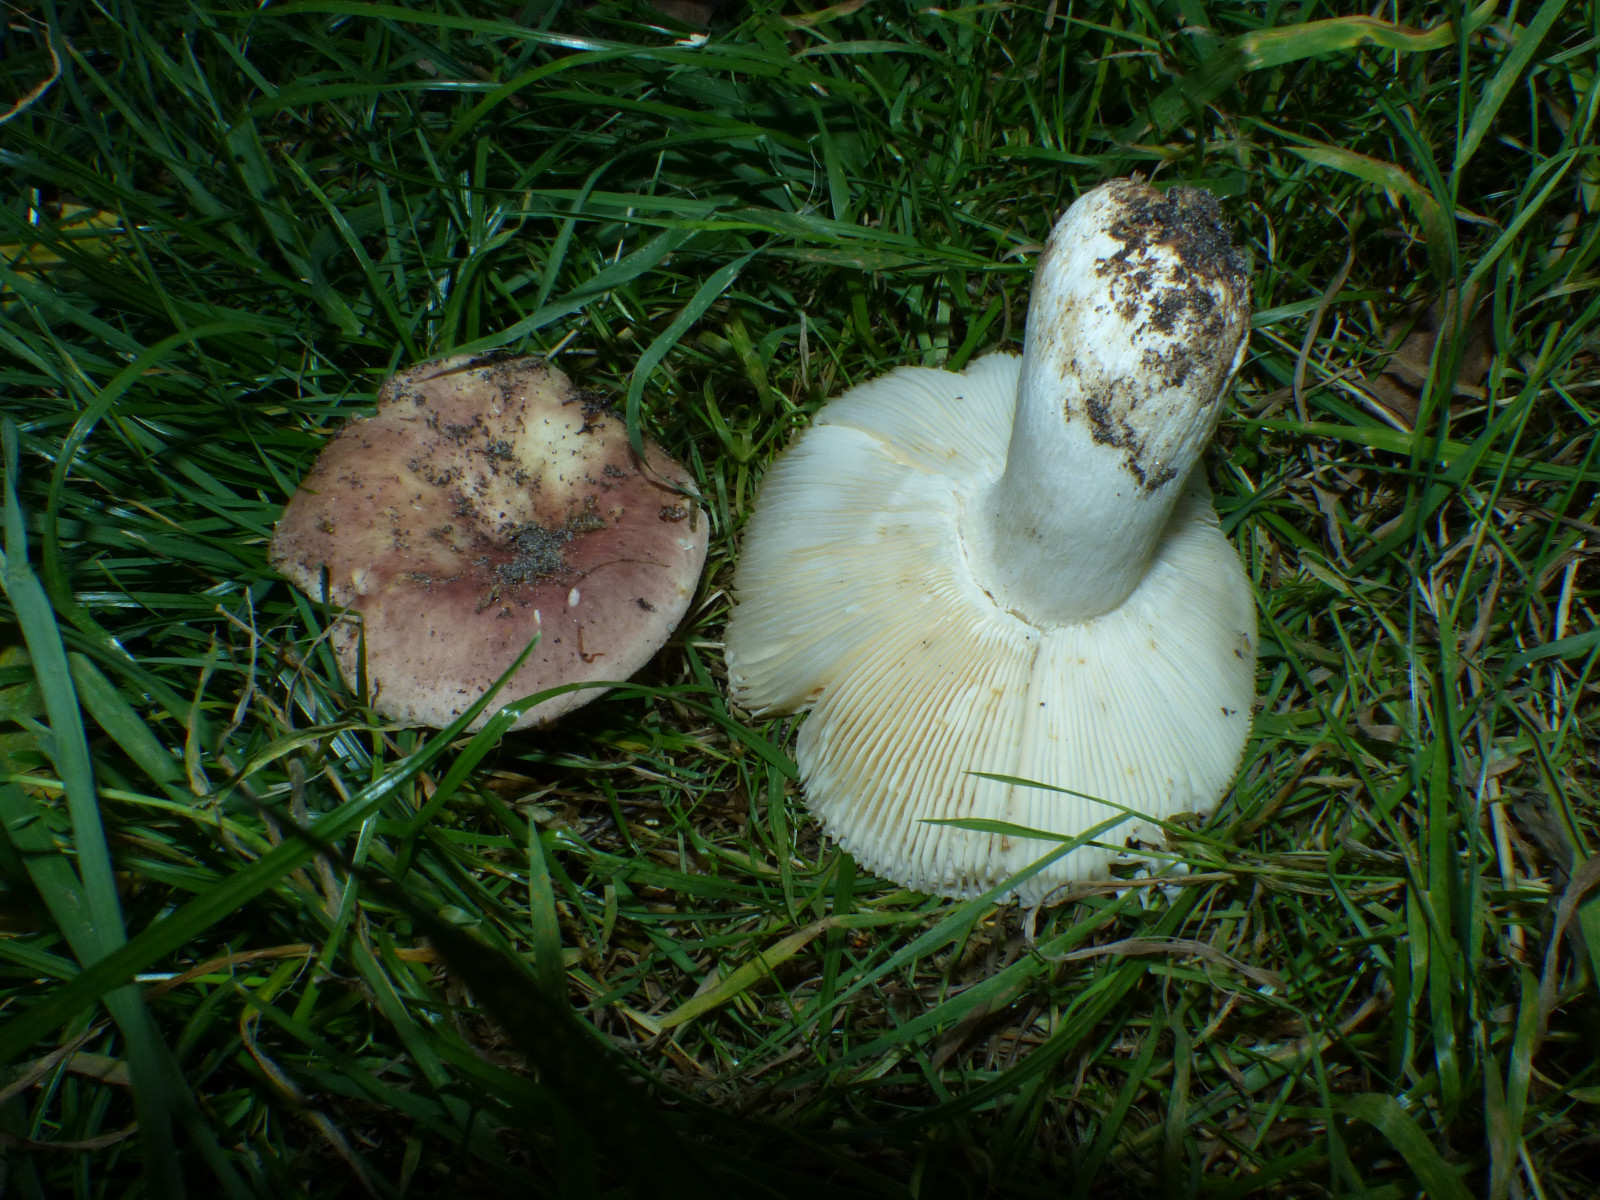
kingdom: Fungi
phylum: Basidiomycota
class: Agaricomycetes
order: Russulales
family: Russulaceae
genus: Russula
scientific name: Russula vesca
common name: spiselig skørhat
